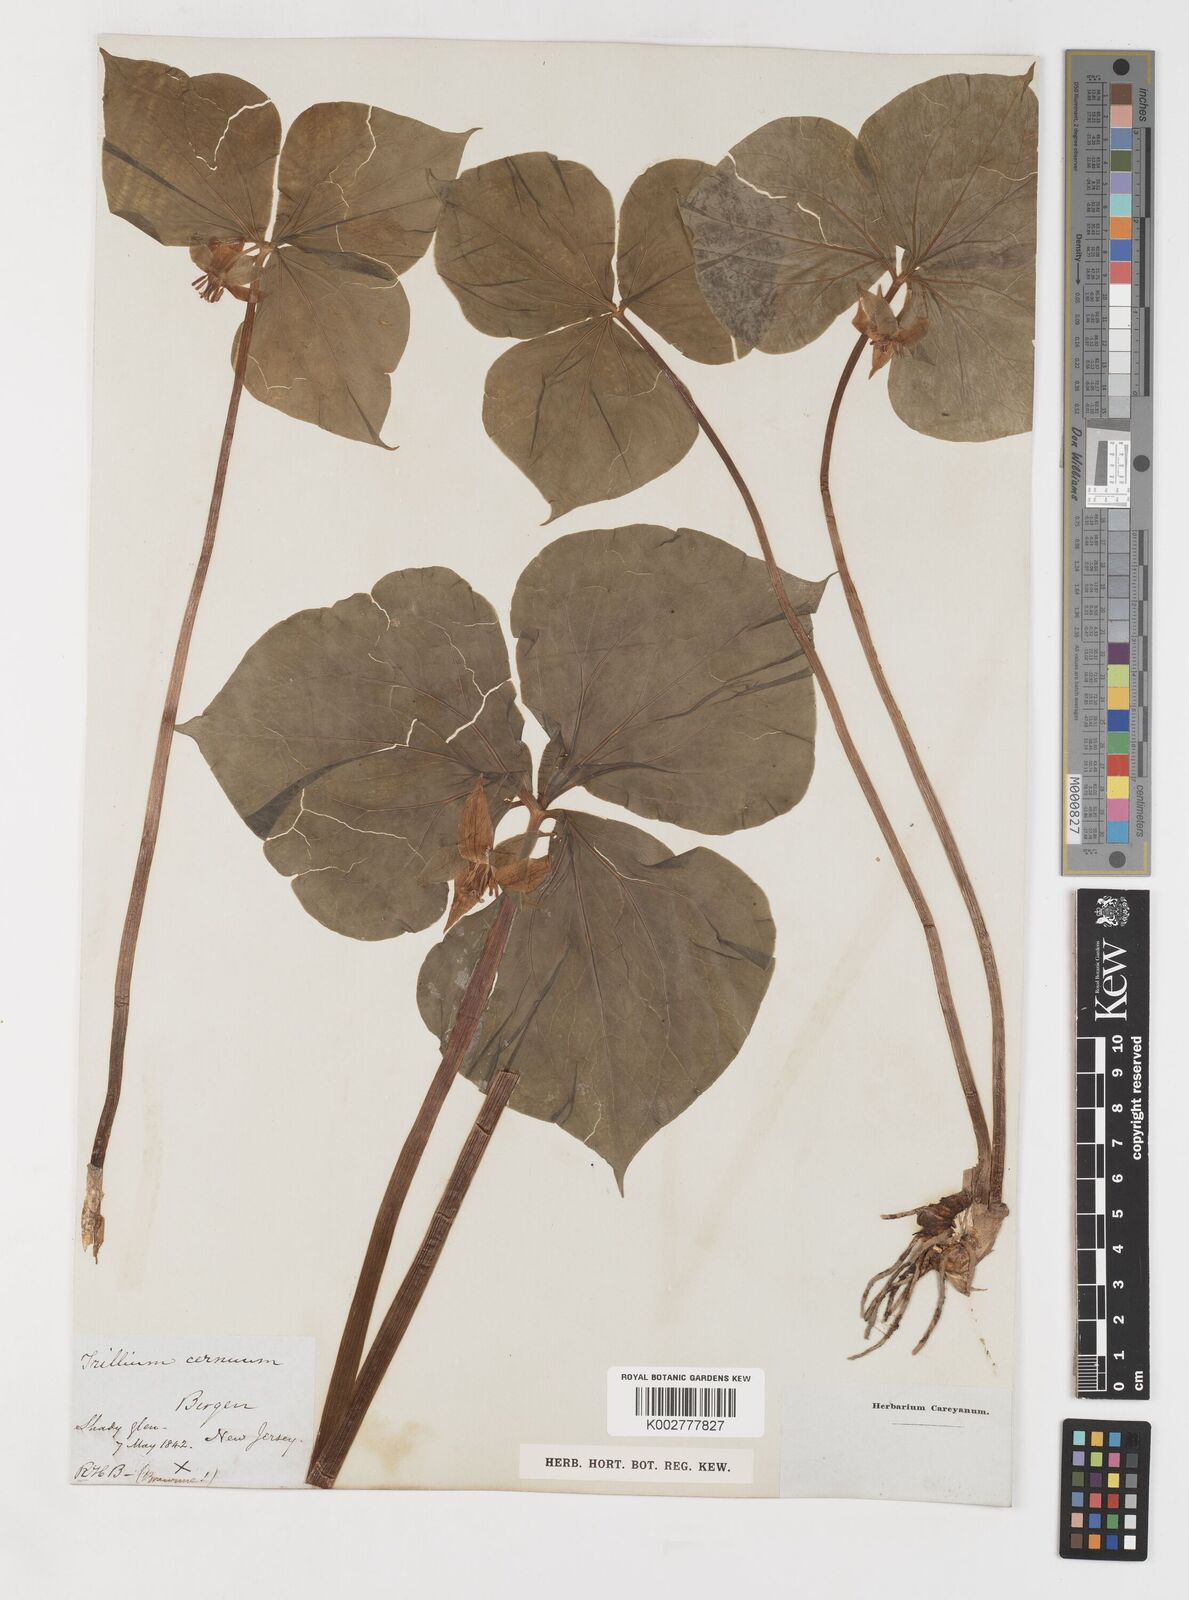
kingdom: Plantae
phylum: Tracheophyta
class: Liliopsida
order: Liliales
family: Melanthiaceae
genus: Trillium
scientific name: Trillium cernuum
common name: Nodding trillium
